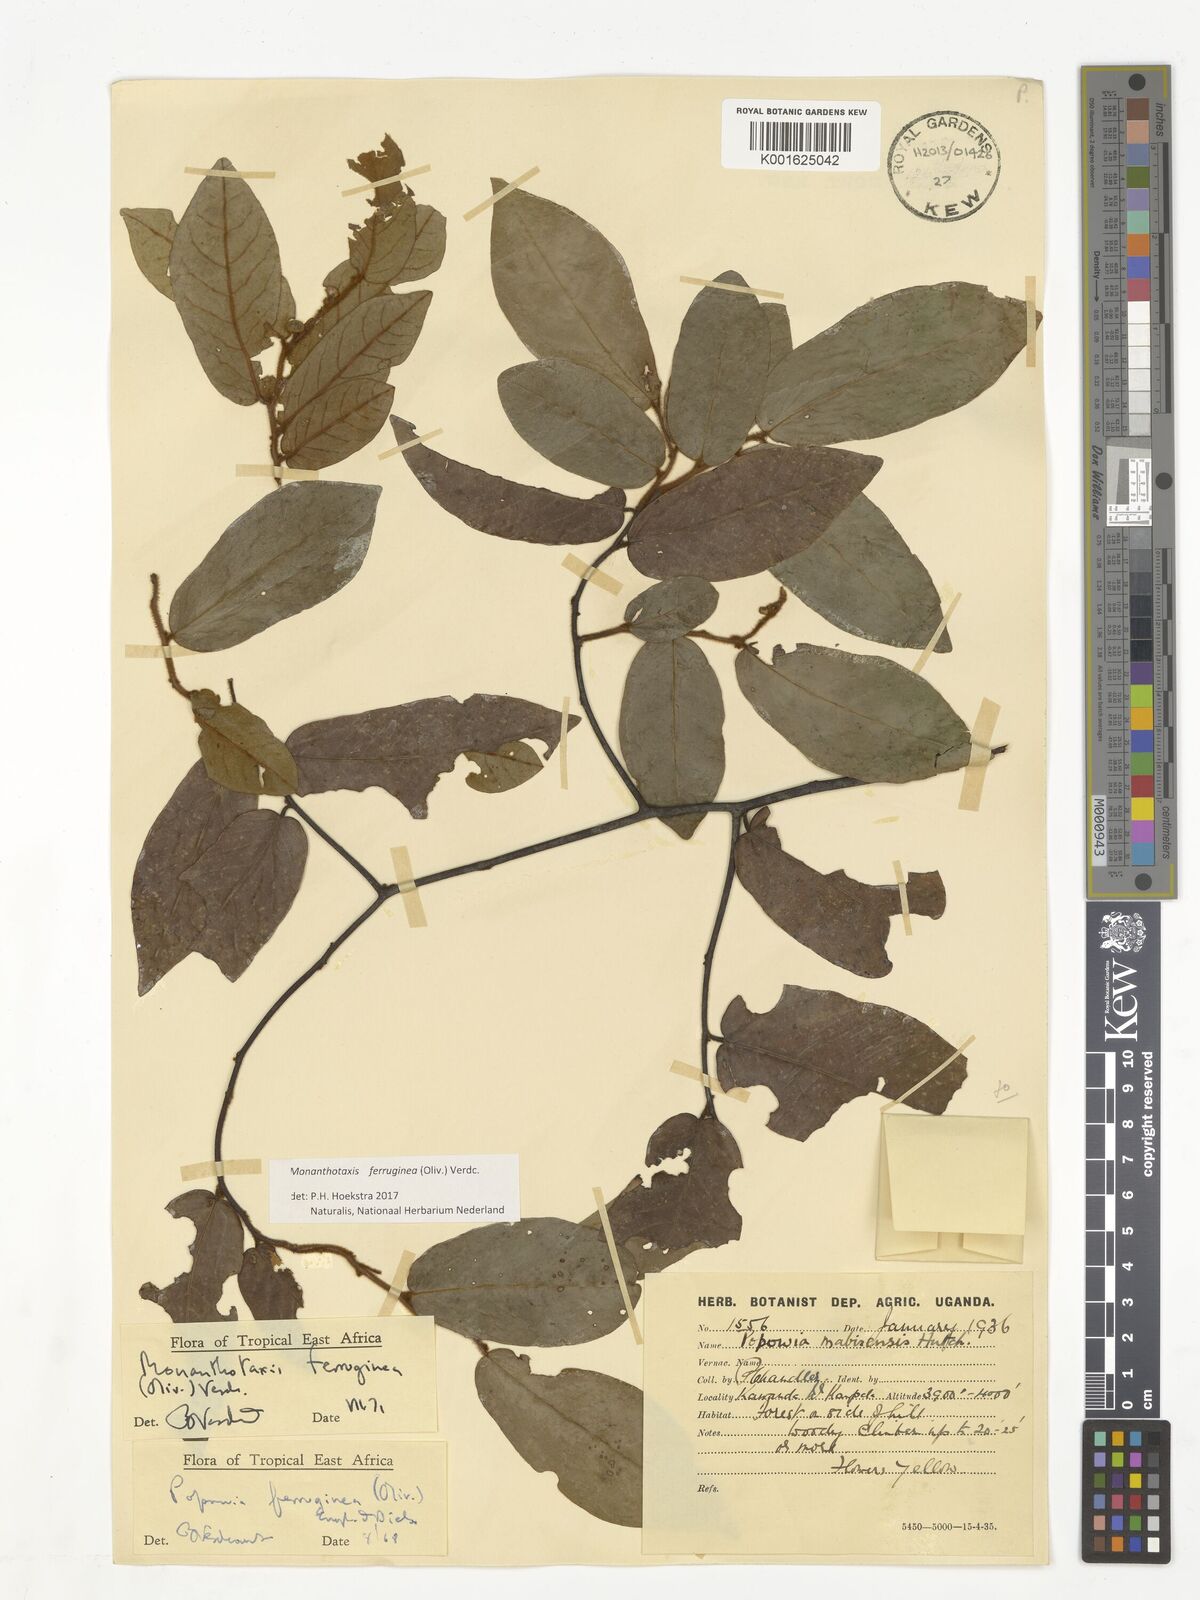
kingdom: Plantae
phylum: Tracheophyta
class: Magnoliopsida
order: Magnoliales
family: Annonaceae
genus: Monanthotaxis
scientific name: Monanthotaxis ferruginea
